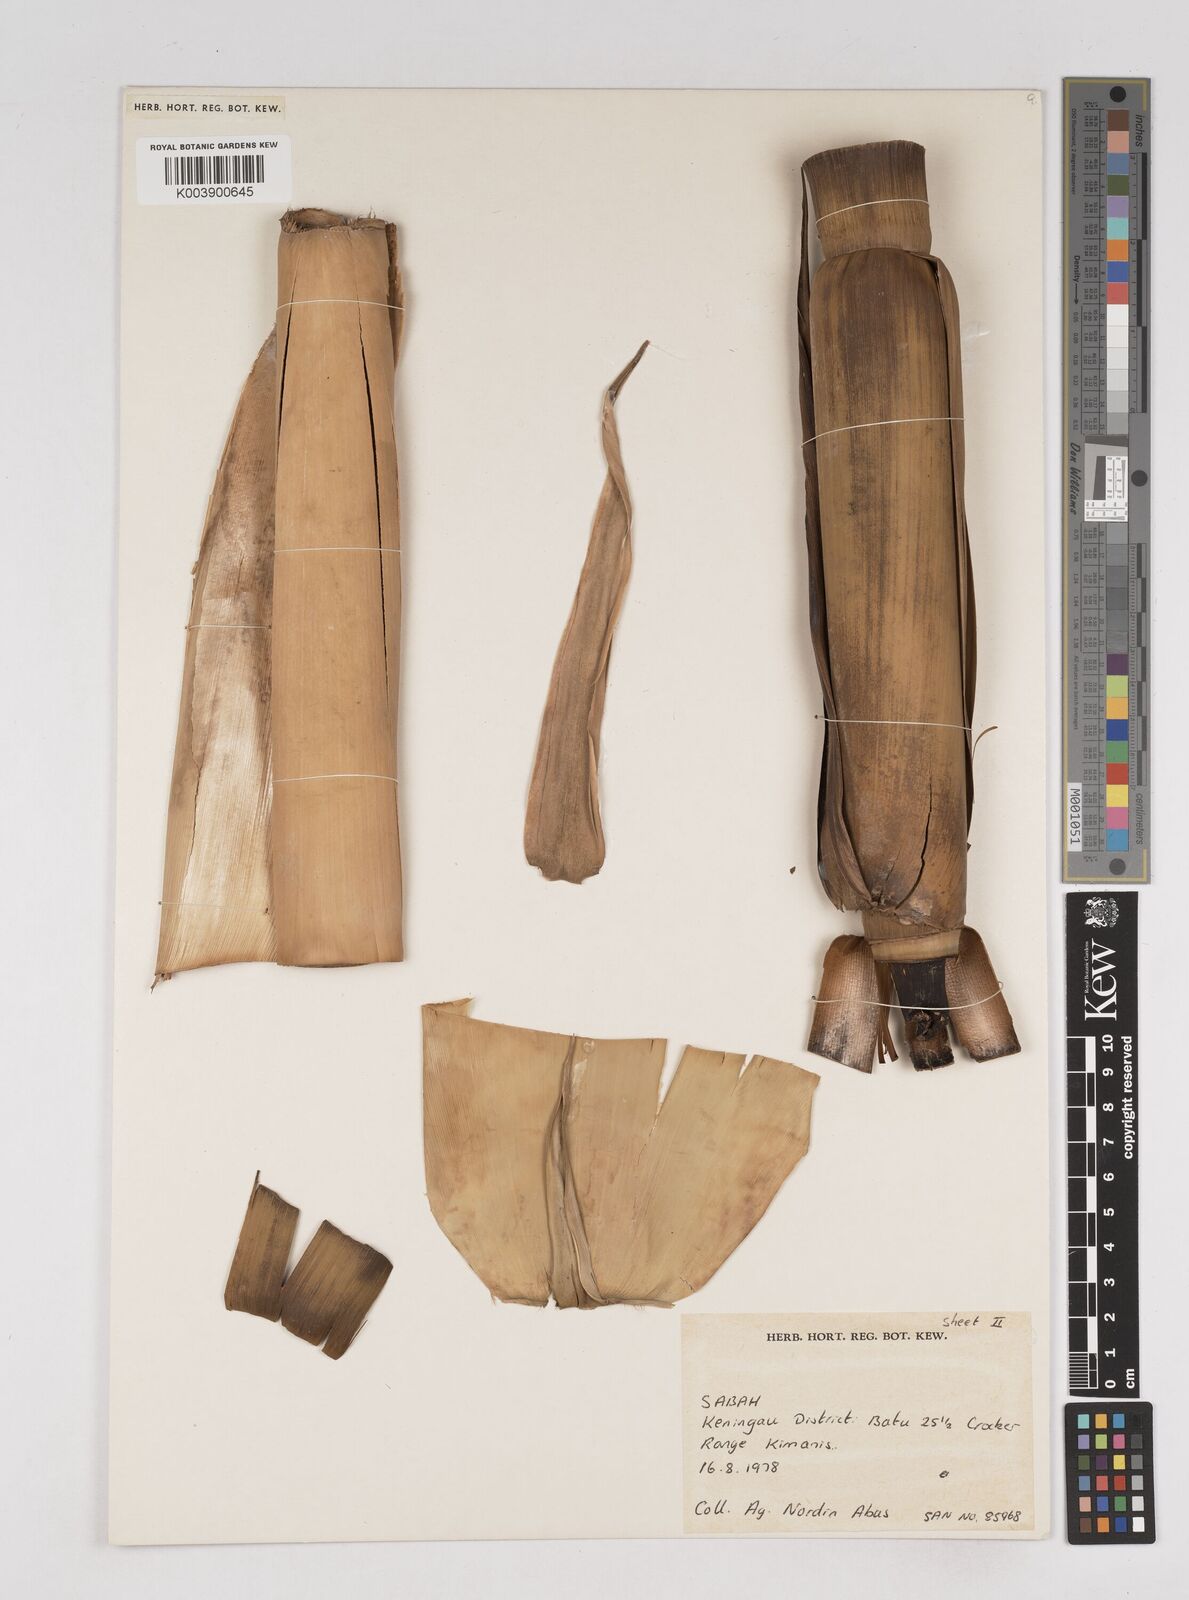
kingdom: Plantae
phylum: Tracheophyta
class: Liliopsida
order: Poales
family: Poaceae
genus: Gigantochloa
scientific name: Gigantochloa
